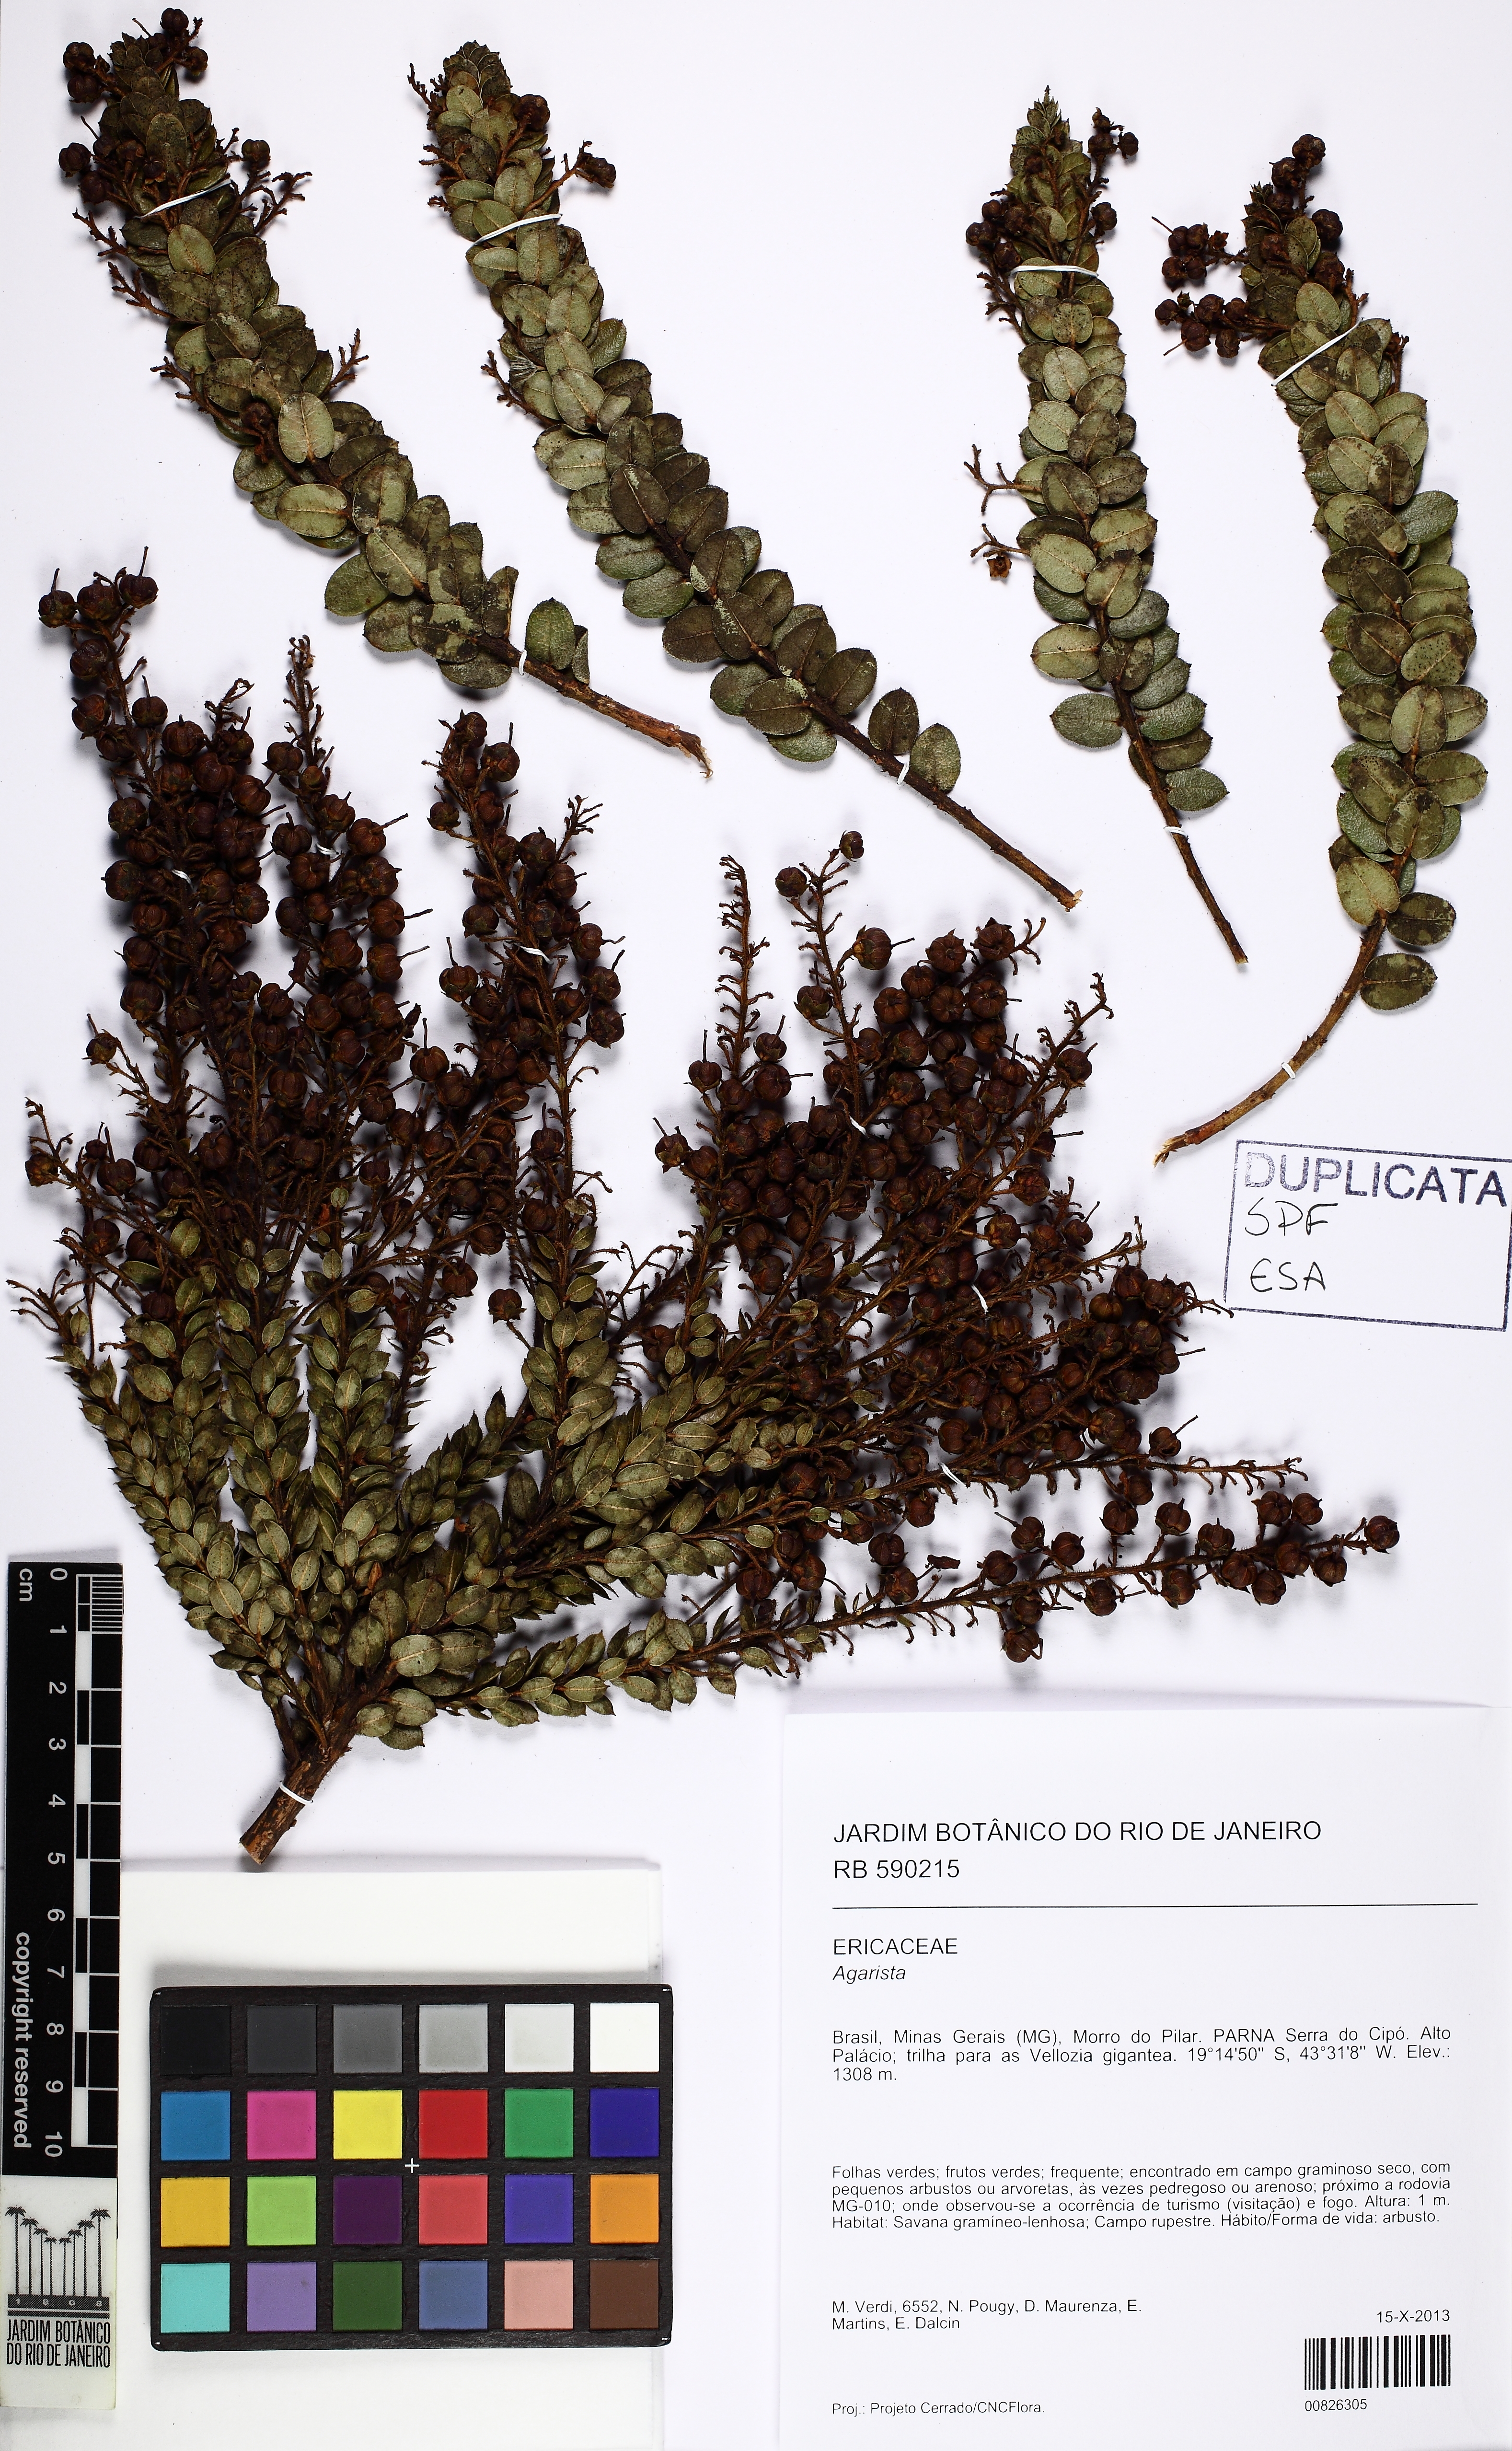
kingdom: Plantae
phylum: Tracheophyta
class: Magnoliopsida
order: Ericales
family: Ericaceae
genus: Agarista
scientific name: Agarista virgata
